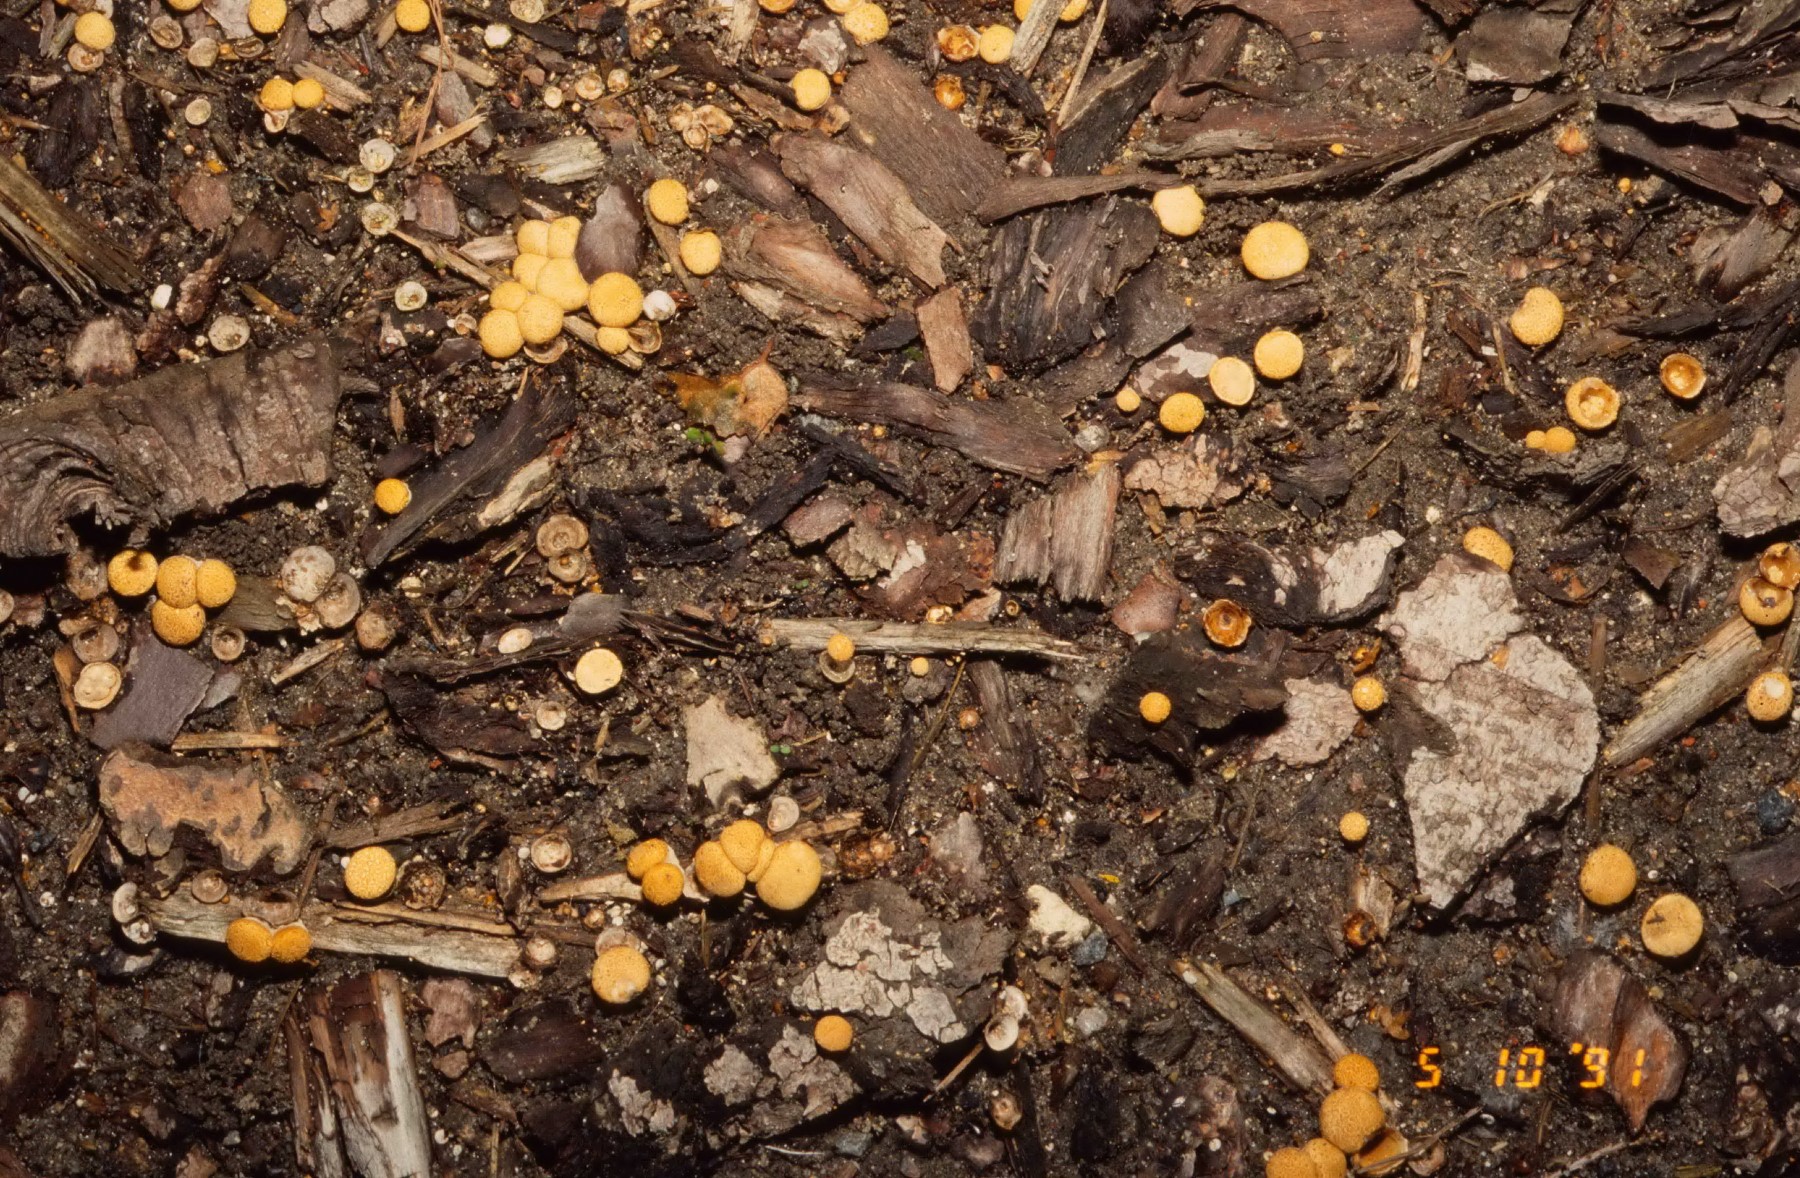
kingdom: Fungi
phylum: Basidiomycota
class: Agaricomycetes
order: Agaricales
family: Nidulariaceae
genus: Crucibulum
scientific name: Crucibulum crucibuliforme
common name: krukkesvamp
